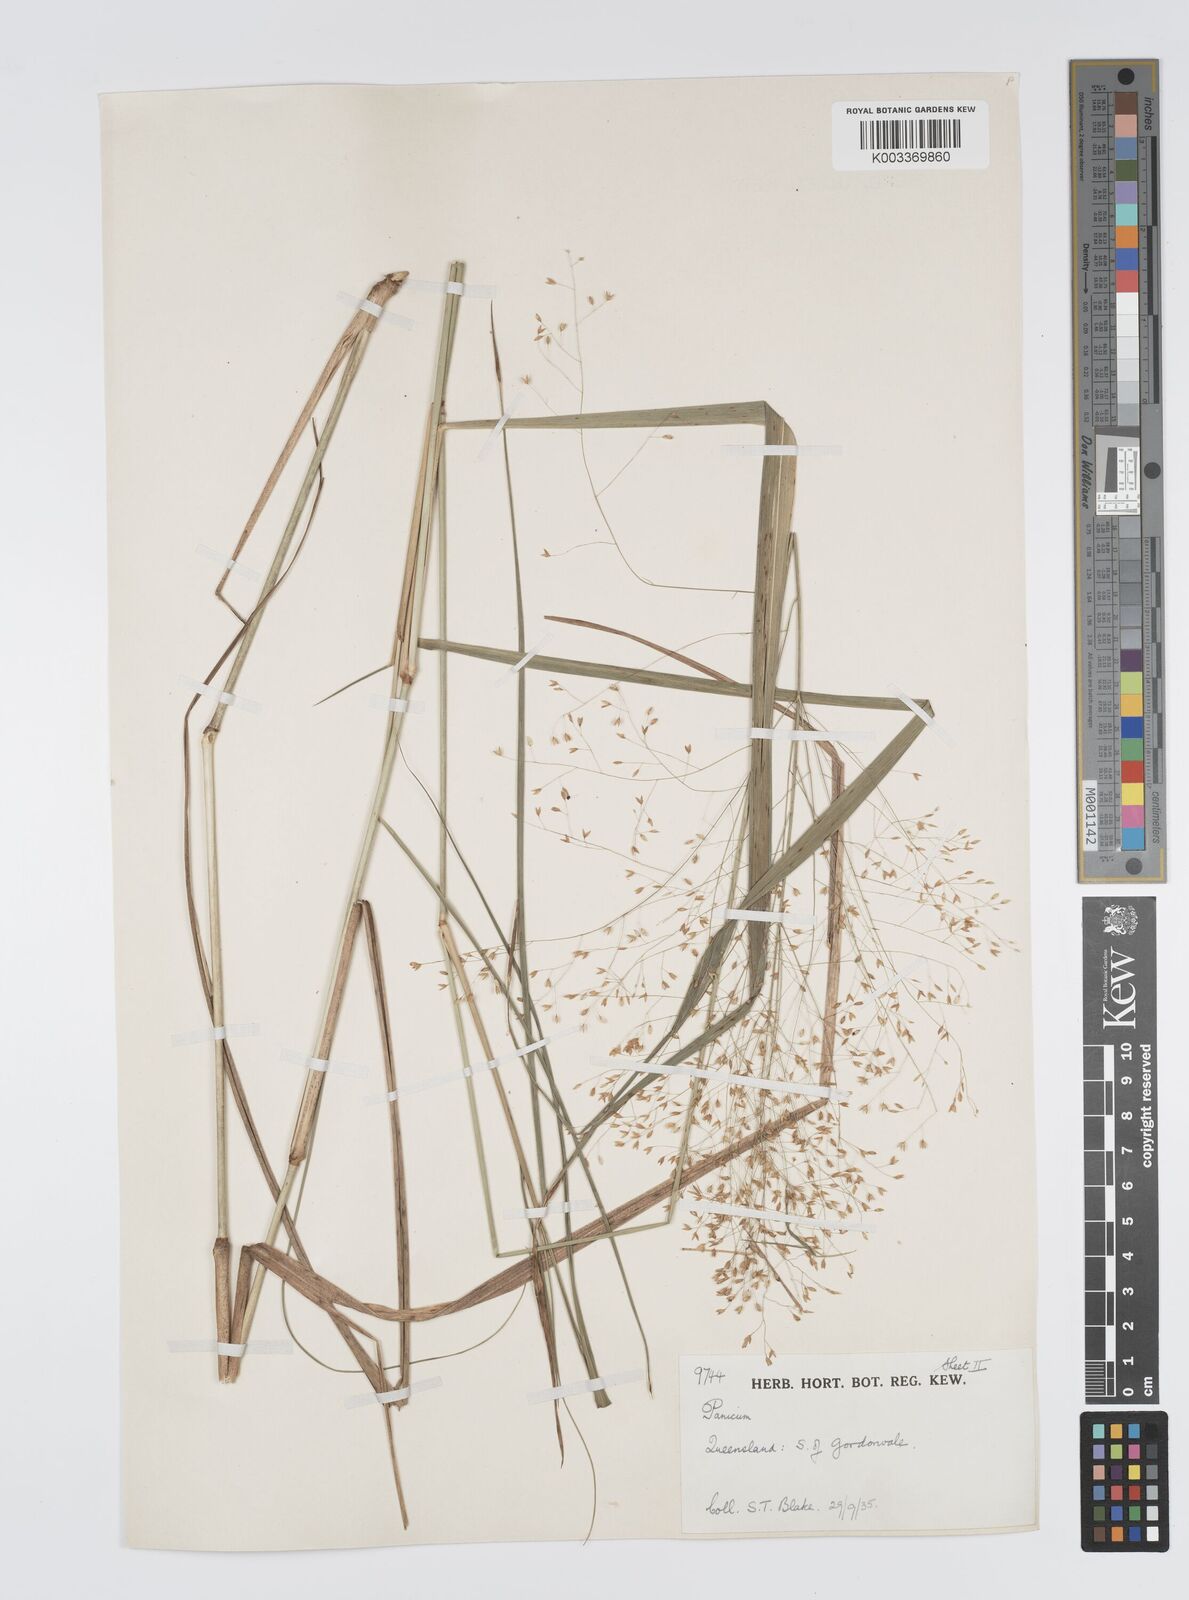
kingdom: Plantae
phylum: Tracheophyta
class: Liliopsida
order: Poales
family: Poaceae
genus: Panicum
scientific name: Panicum mitchellii
